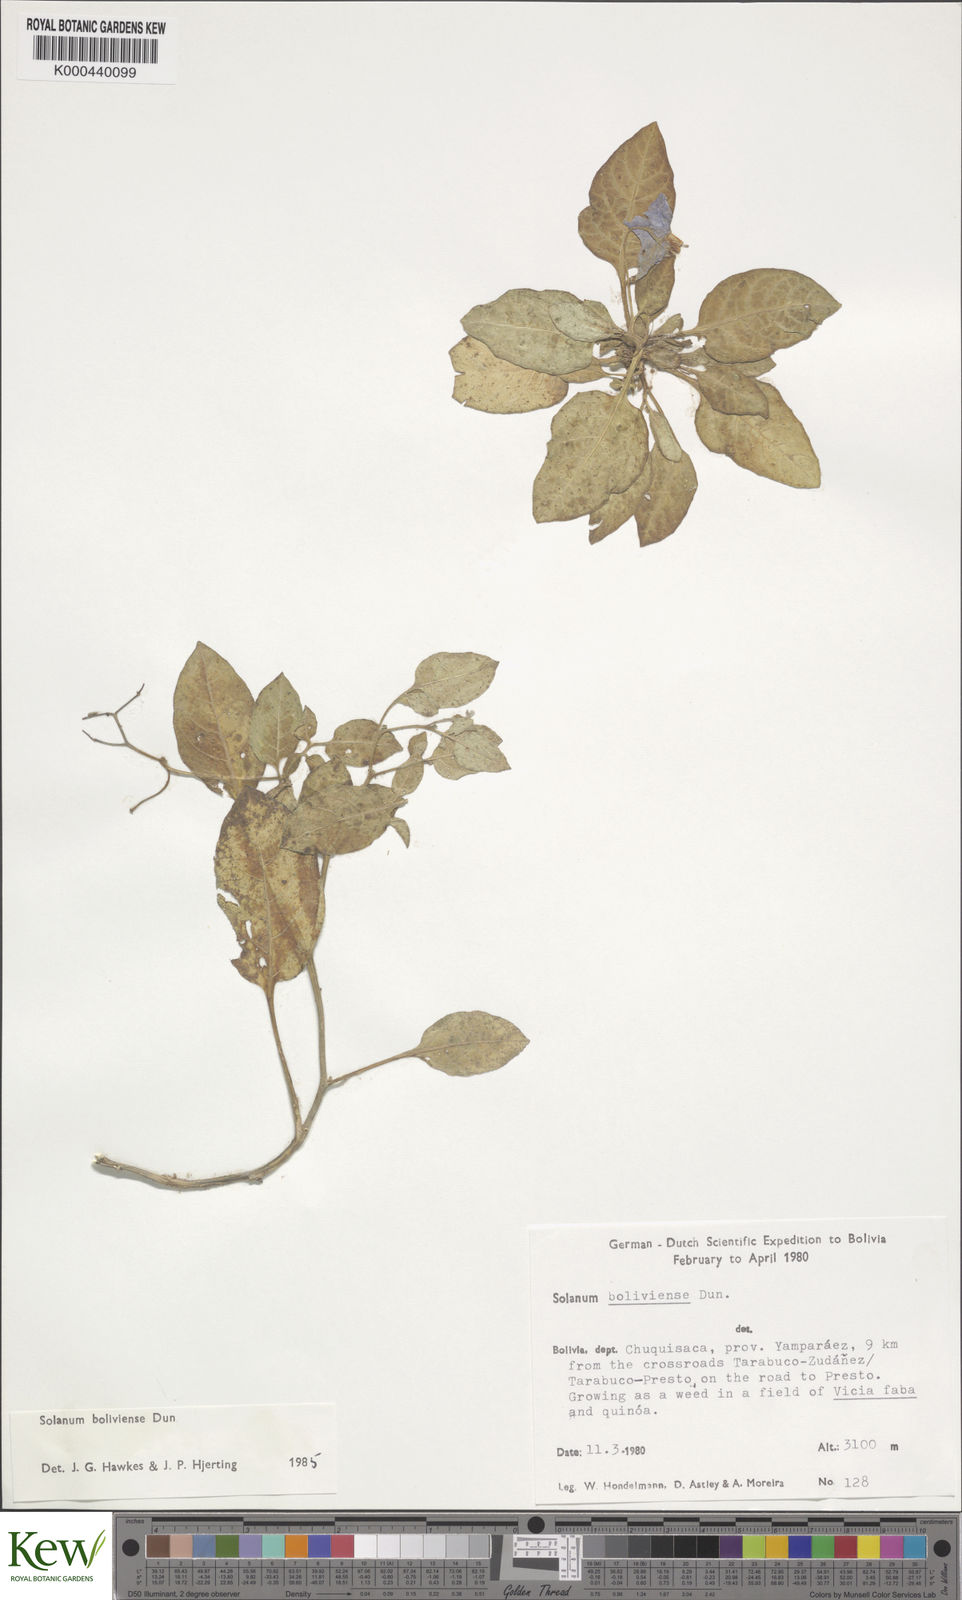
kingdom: Plantae
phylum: Tracheophyta
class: Magnoliopsida
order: Solanales
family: Solanaceae
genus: Solanum
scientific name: Solanum boliviense
